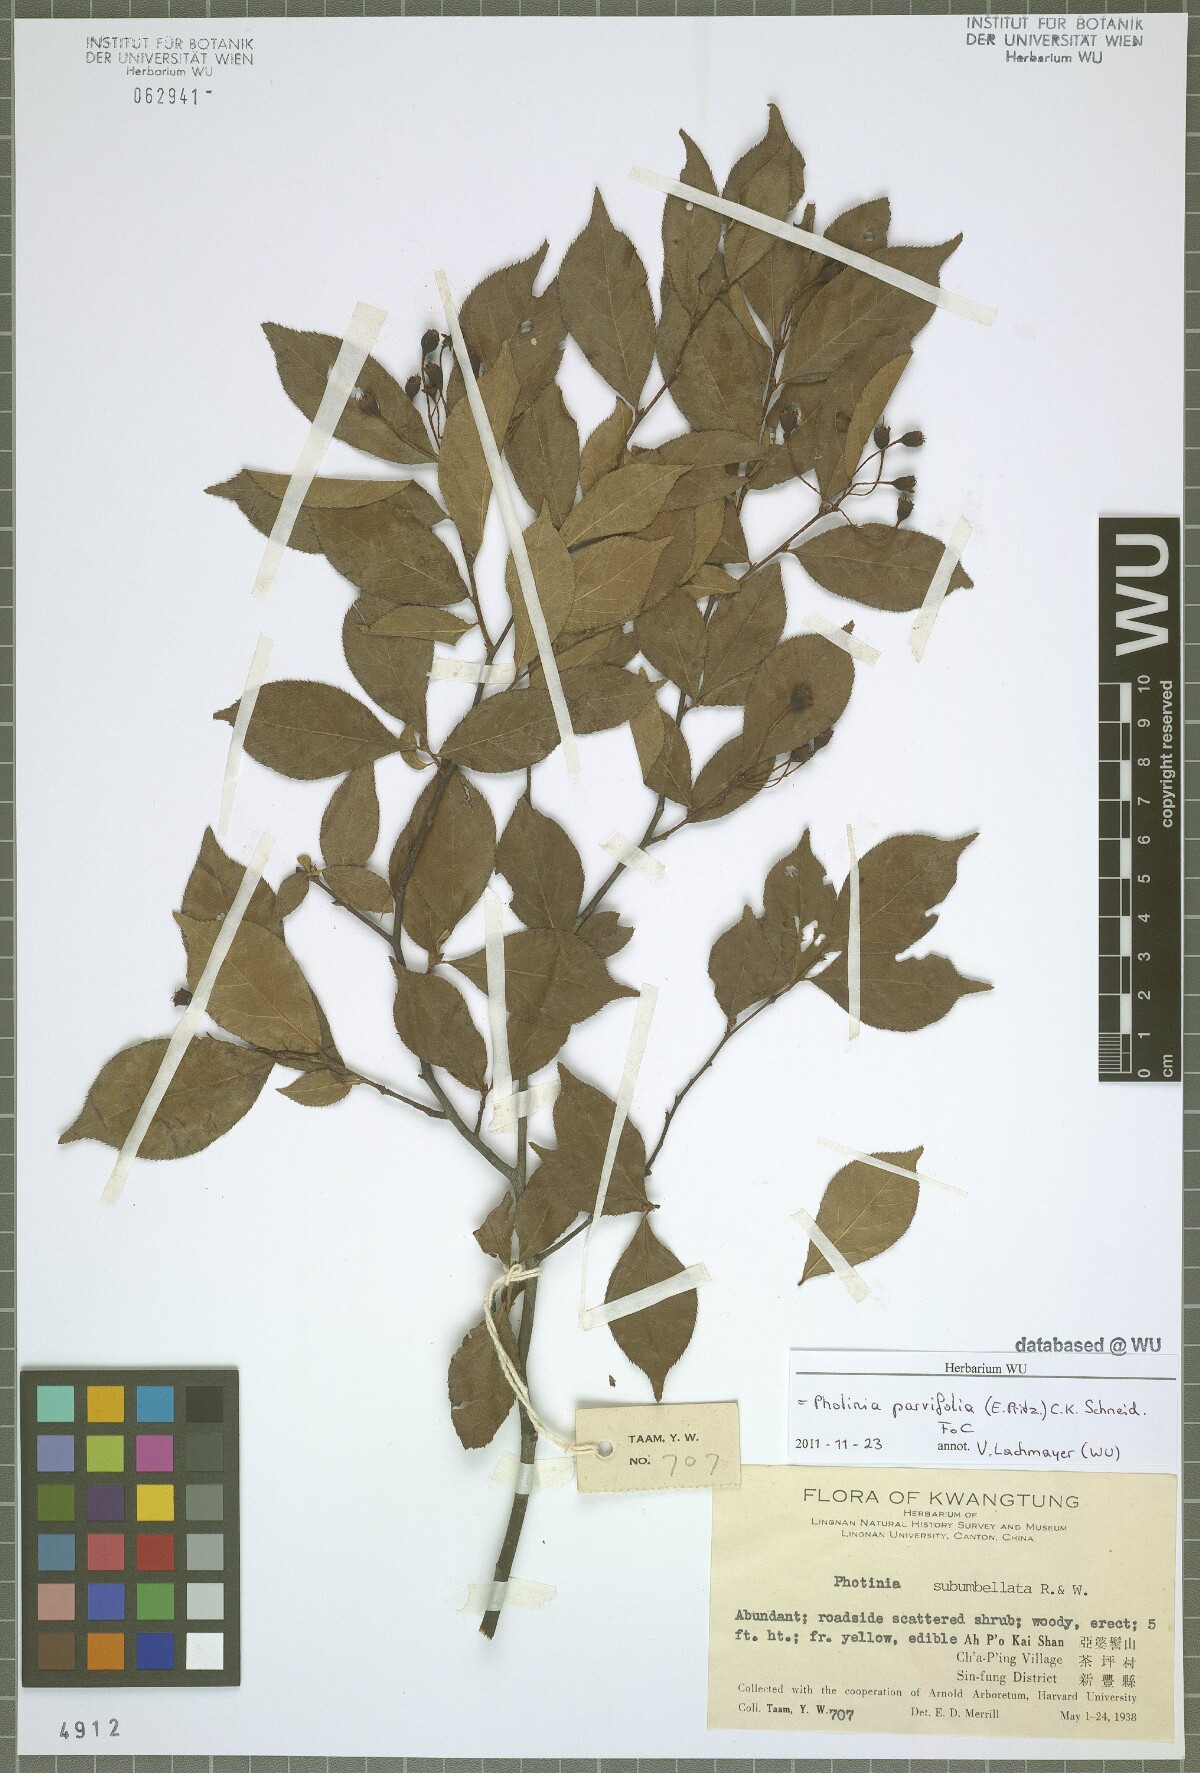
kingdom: Plantae
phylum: Tracheophyta
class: Magnoliopsida
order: Rosales
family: Rosaceae
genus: Pourthiaea
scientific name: Pourthiaea parviflora
